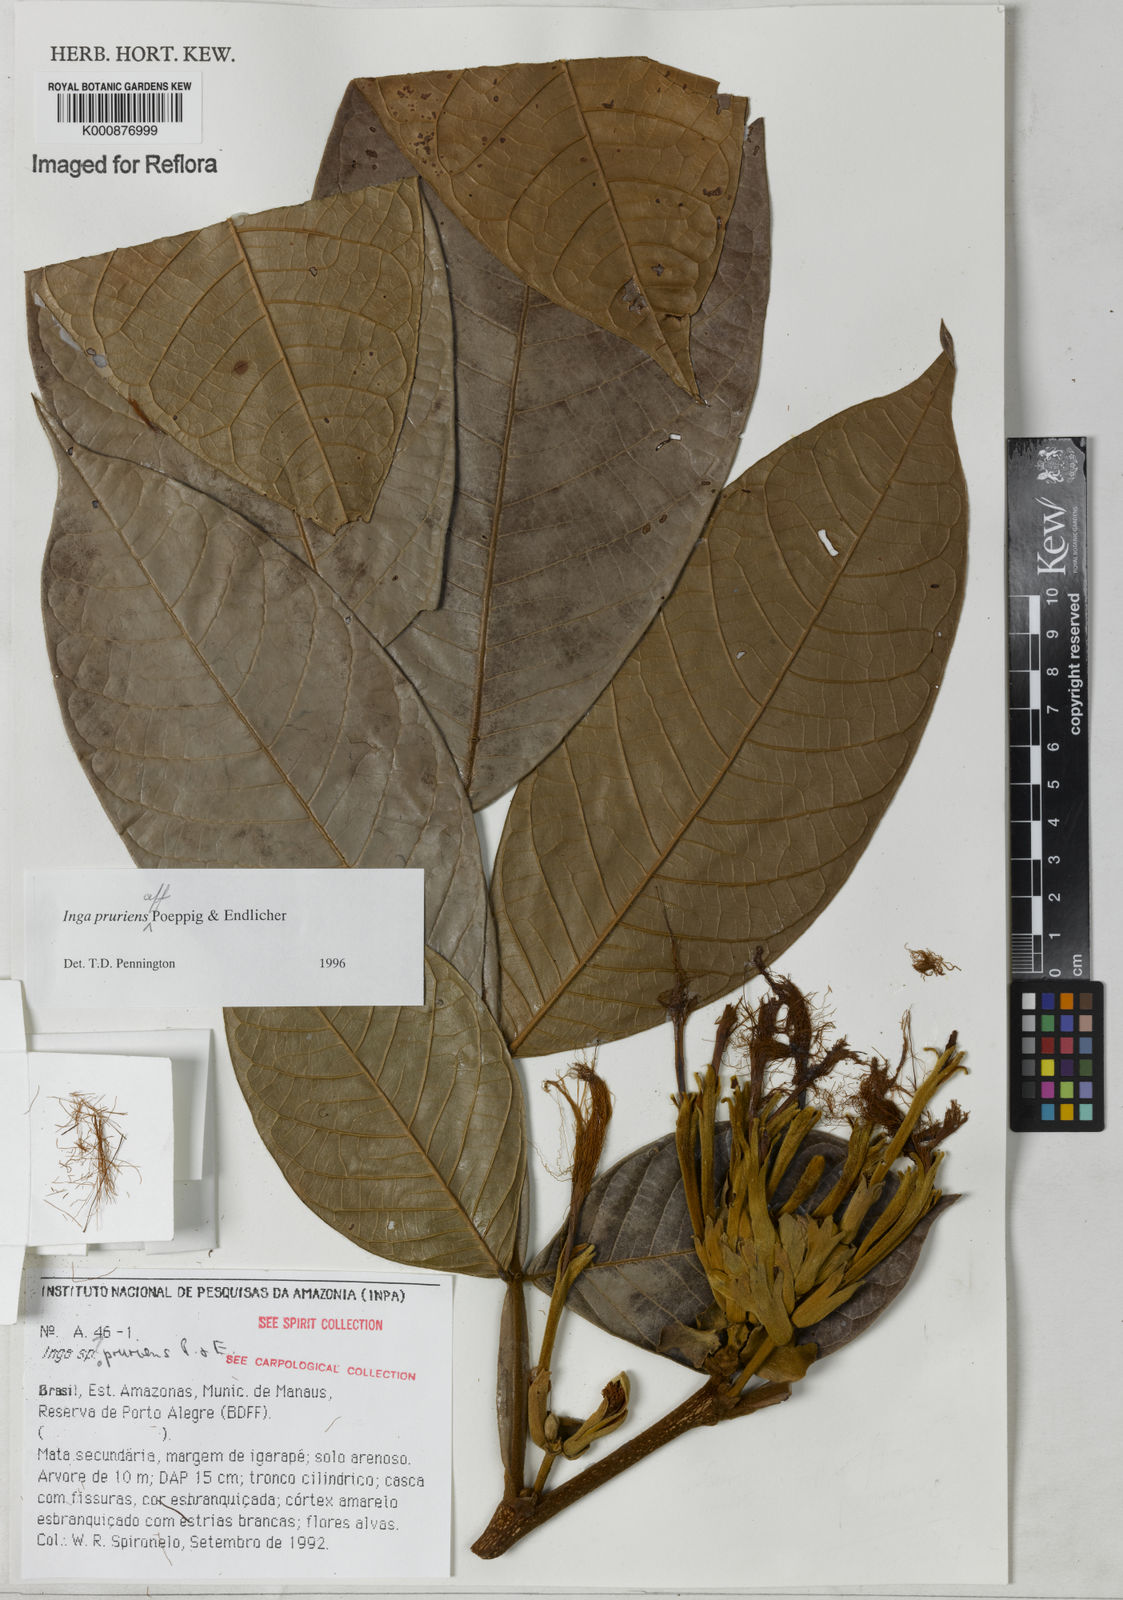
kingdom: Plantae
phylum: Tracheophyta
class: Magnoliopsida
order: Fabales
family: Fabaceae
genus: Inga
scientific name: Inga pruriens
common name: Howler monkey inga
